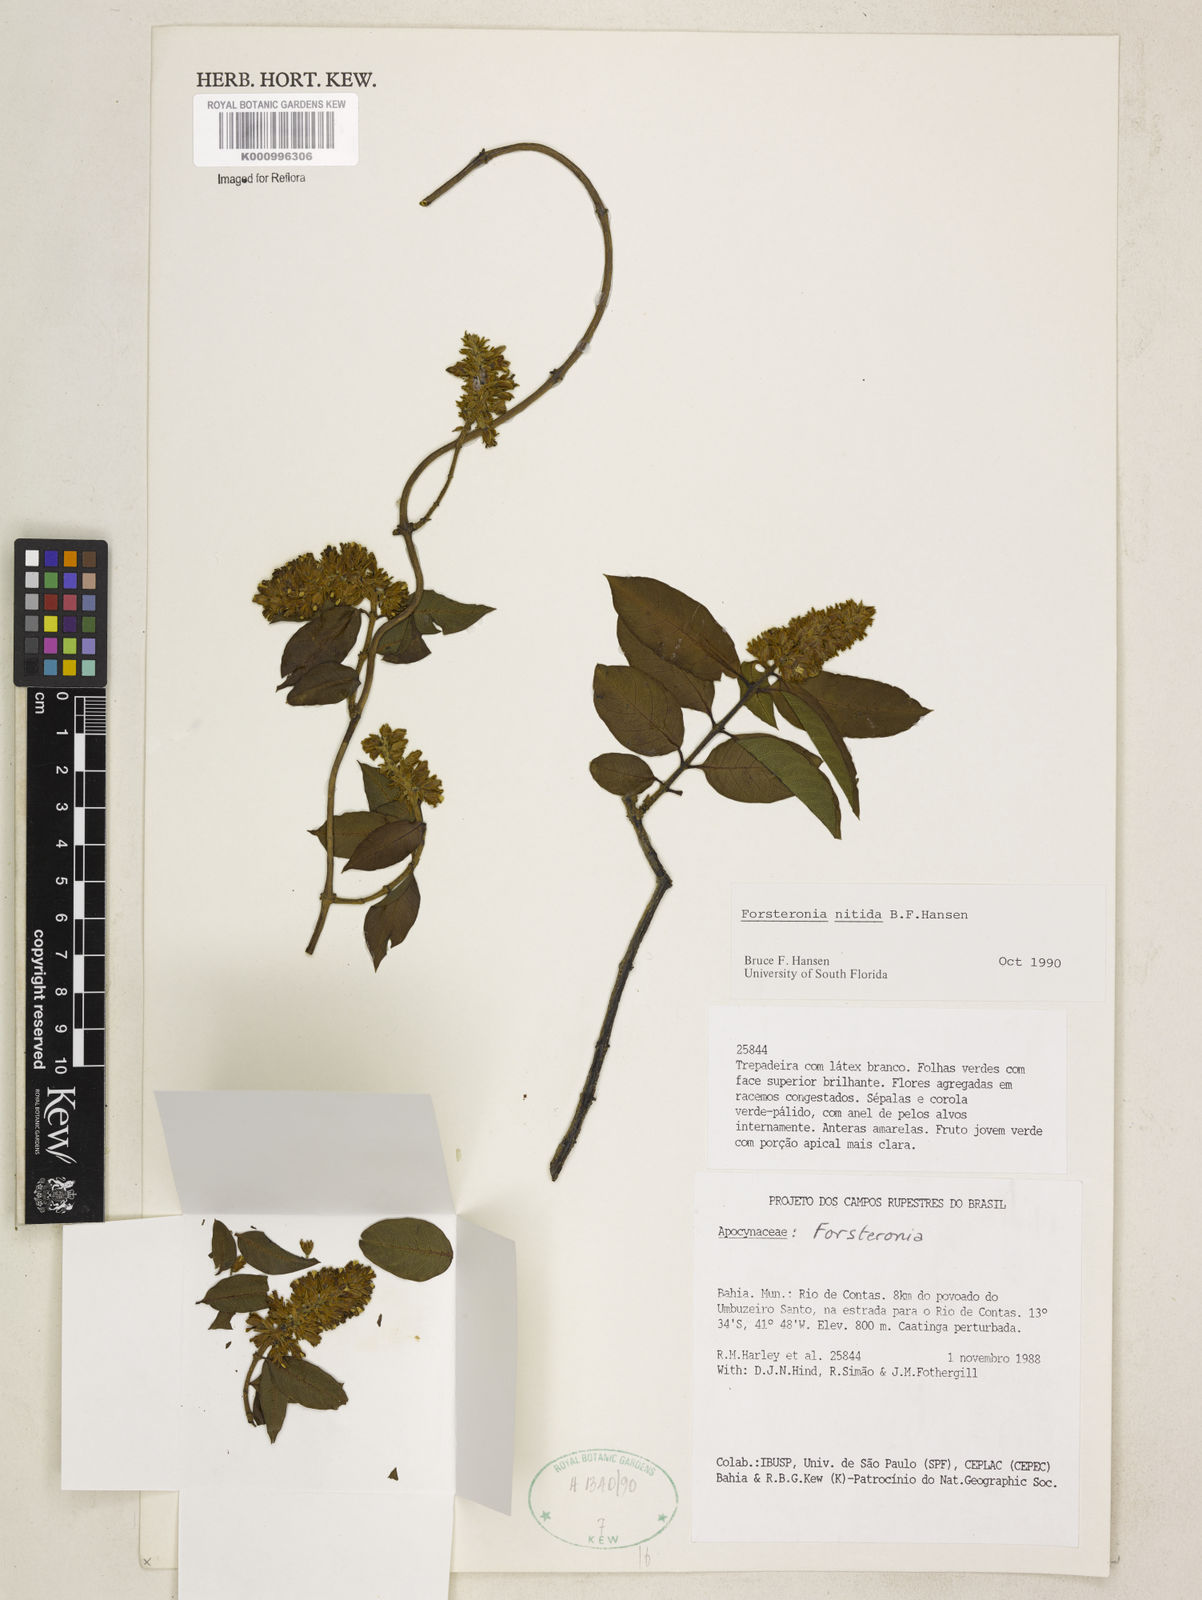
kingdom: Plantae
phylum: Tracheophyta
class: Magnoliopsida
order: Gentianales
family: Apocynaceae
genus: Forsteronia
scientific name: Forsteronia
